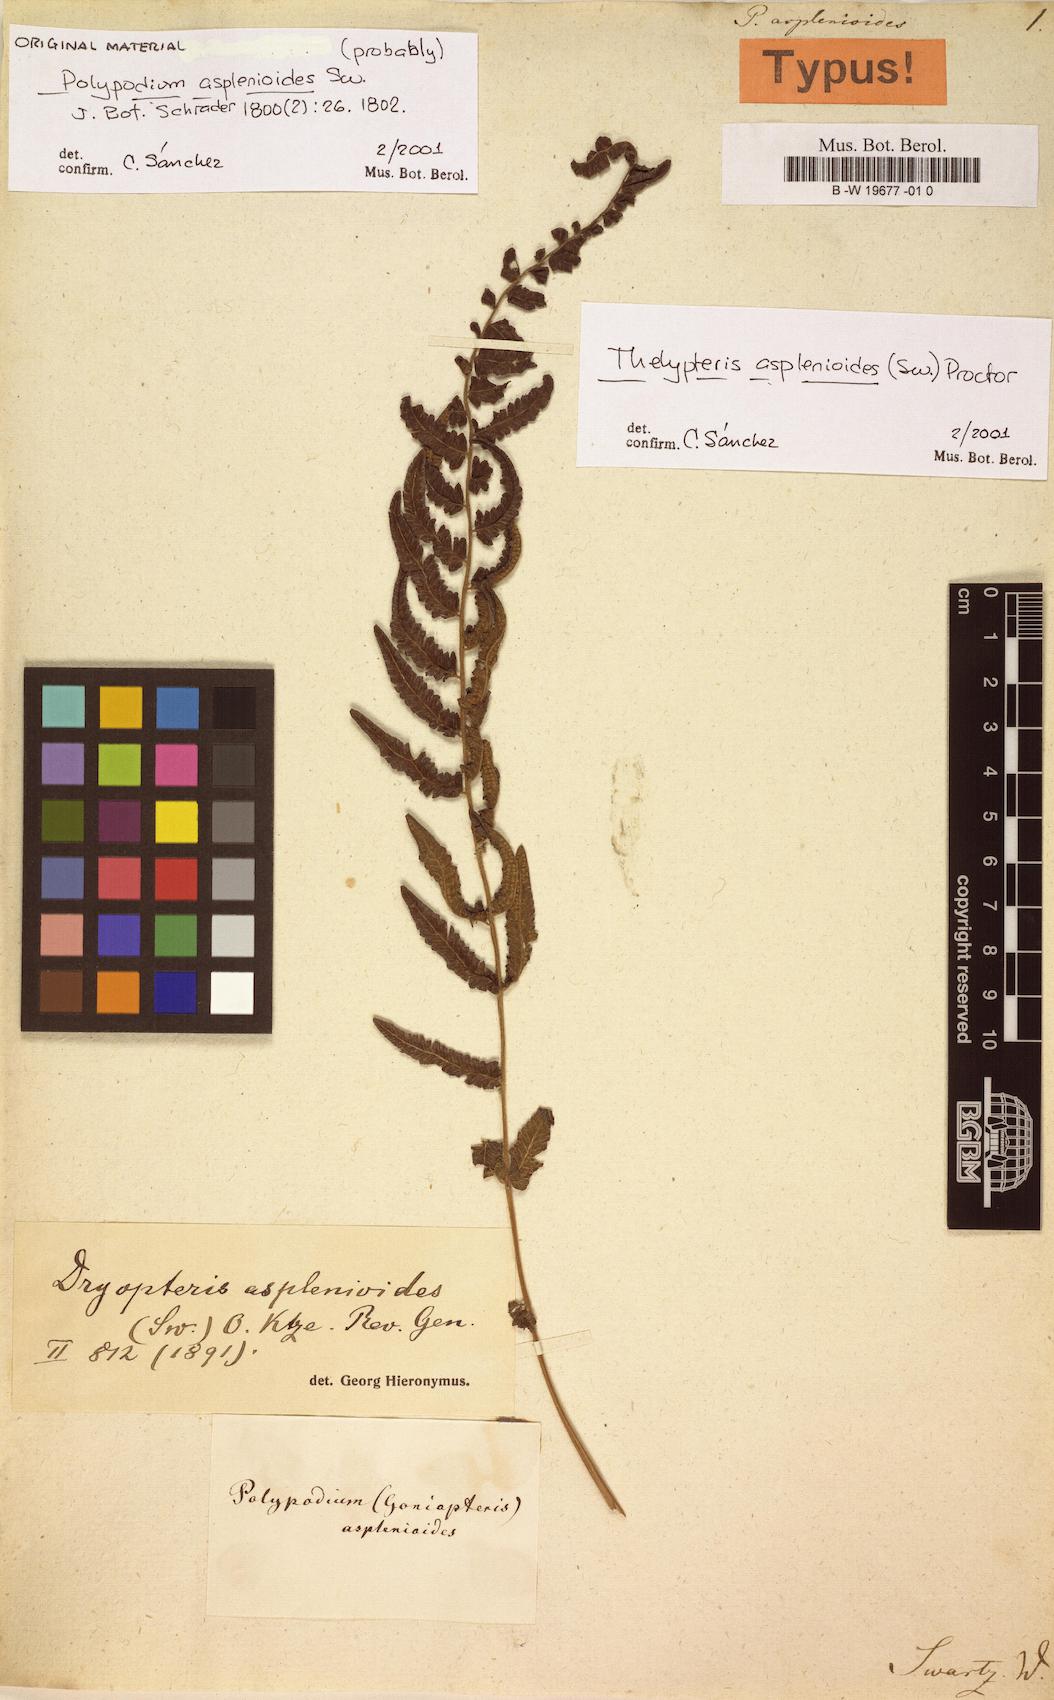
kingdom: Plantae
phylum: Tracheophyta
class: Polypodiopsida
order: Polypodiales
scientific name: Polypodiales
